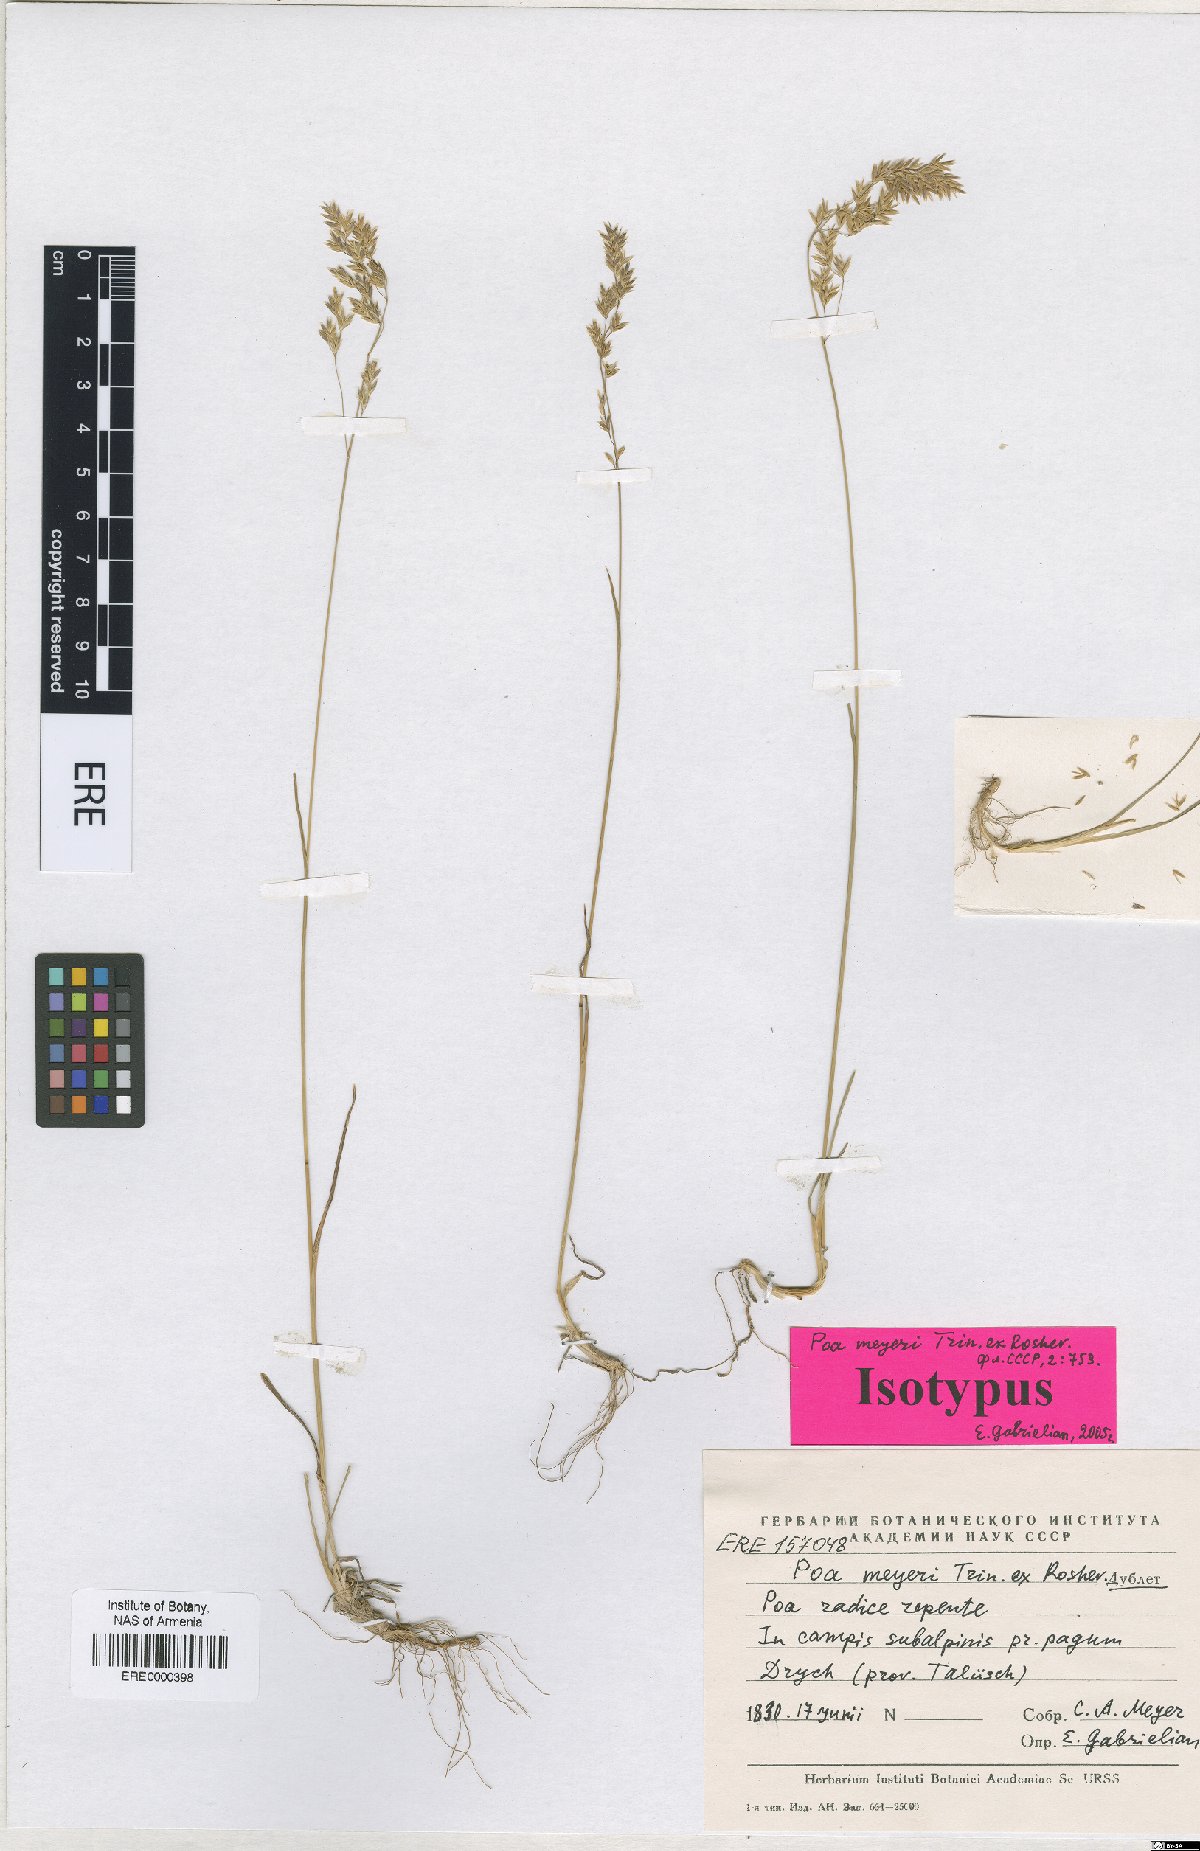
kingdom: Plantae
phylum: Tracheophyta
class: Liliopsida
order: Poales
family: Poaceae
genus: Poa
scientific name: Poa longifolia
